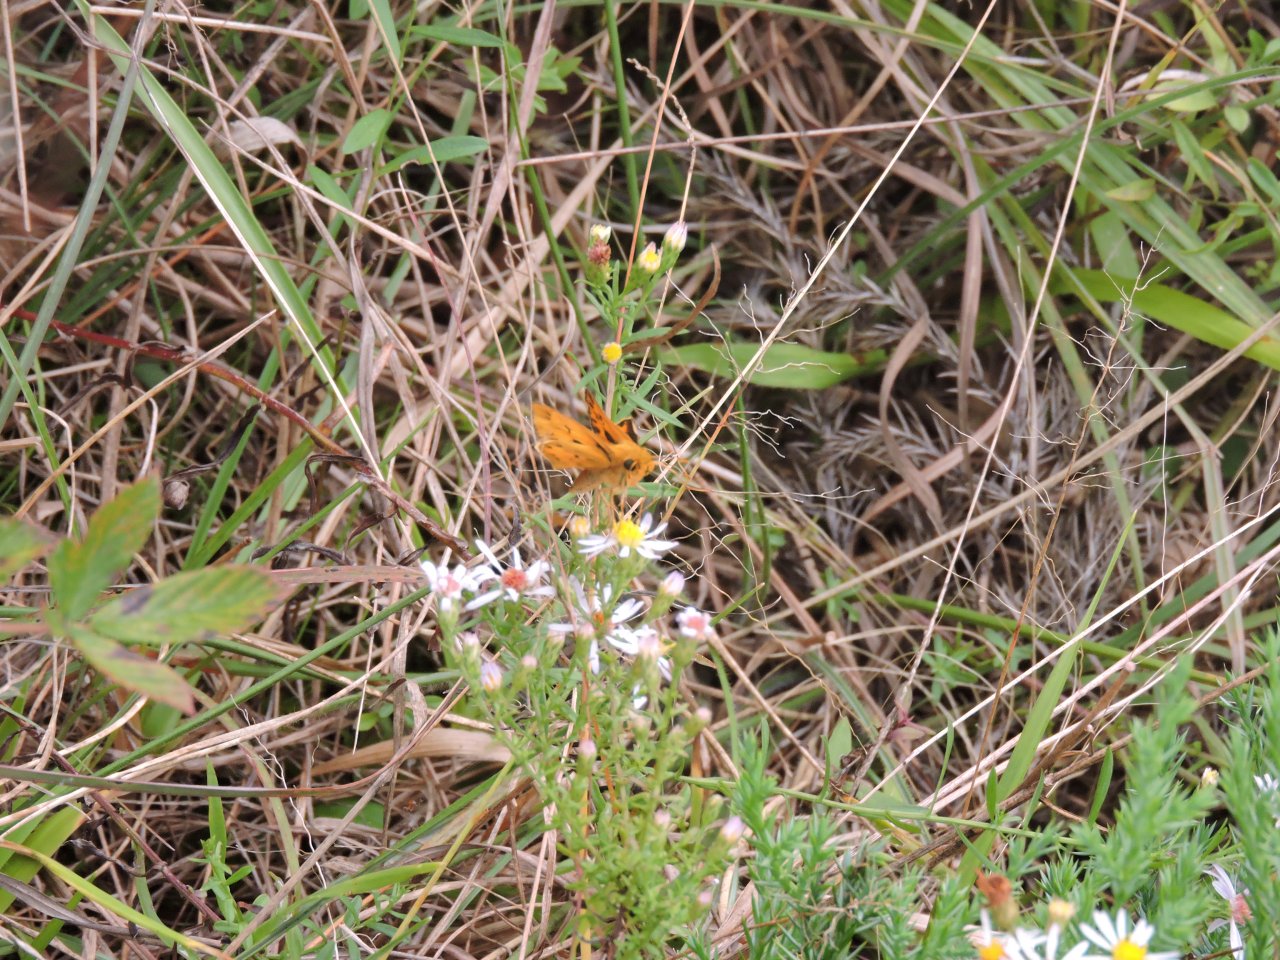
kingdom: Animalia
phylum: Arthropoda
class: Insecta
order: Lepidoptera
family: Hesperiidae
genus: Hylephila
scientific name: Hylephila phyleus
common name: Fiery Skipper
